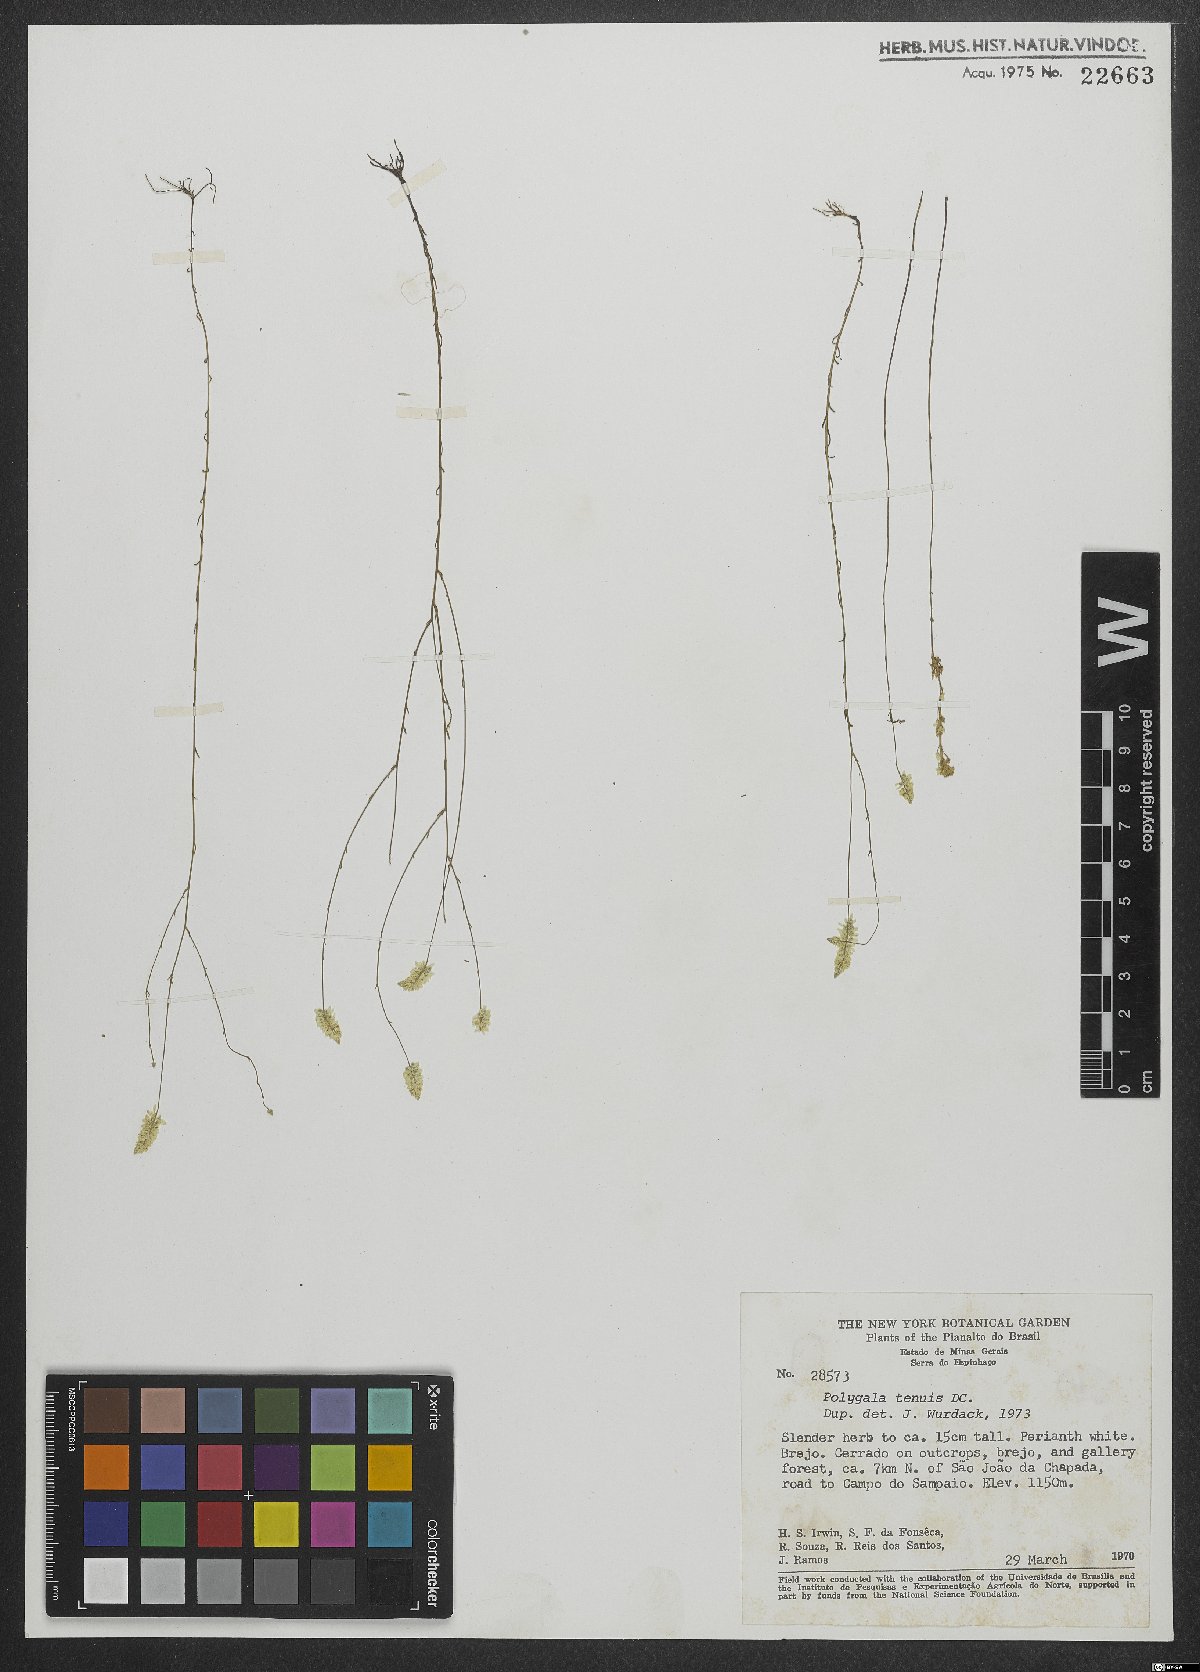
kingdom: Plantae
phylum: Tracheophyta
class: Magnoliopsida
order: Fabales
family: Polygalaceae
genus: Polygala
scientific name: Polygala rarifolia
